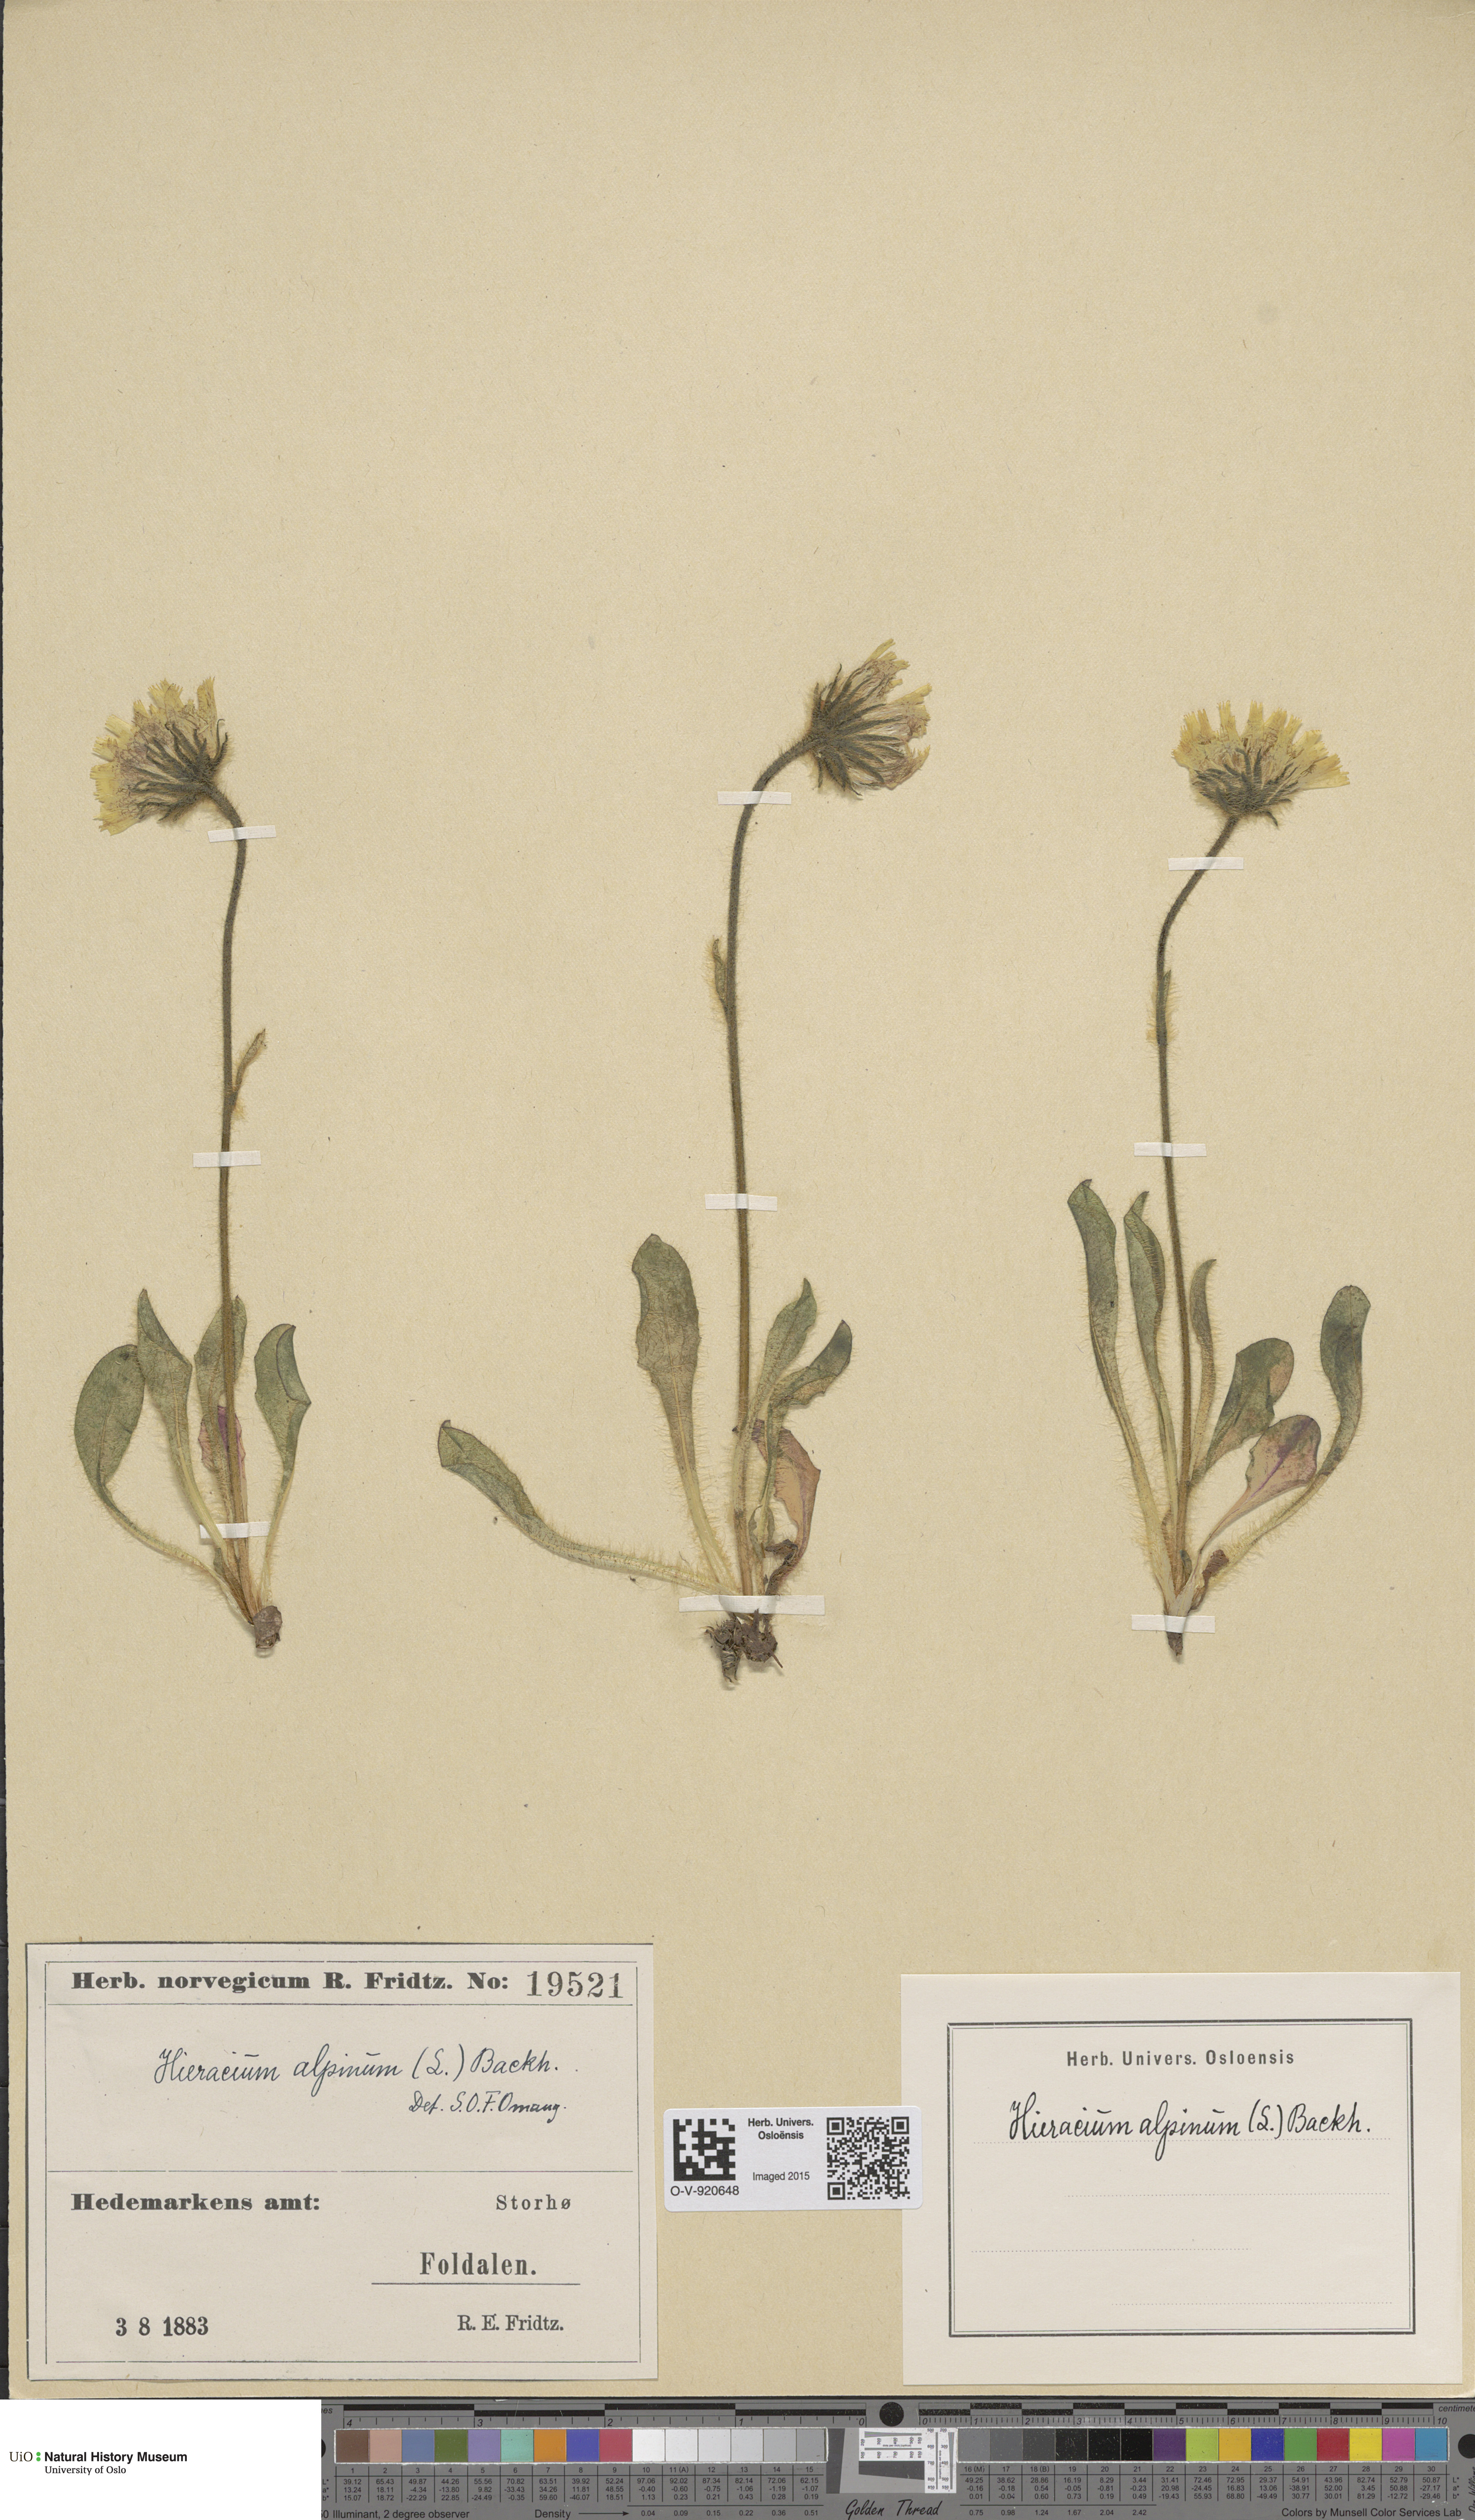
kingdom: Plantae
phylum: Tracheophyta
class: Magnoliopsida
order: Asterales
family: Asteraceae
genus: Hieracium
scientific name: Hieracium alpinum
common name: Alpine hawkweed
